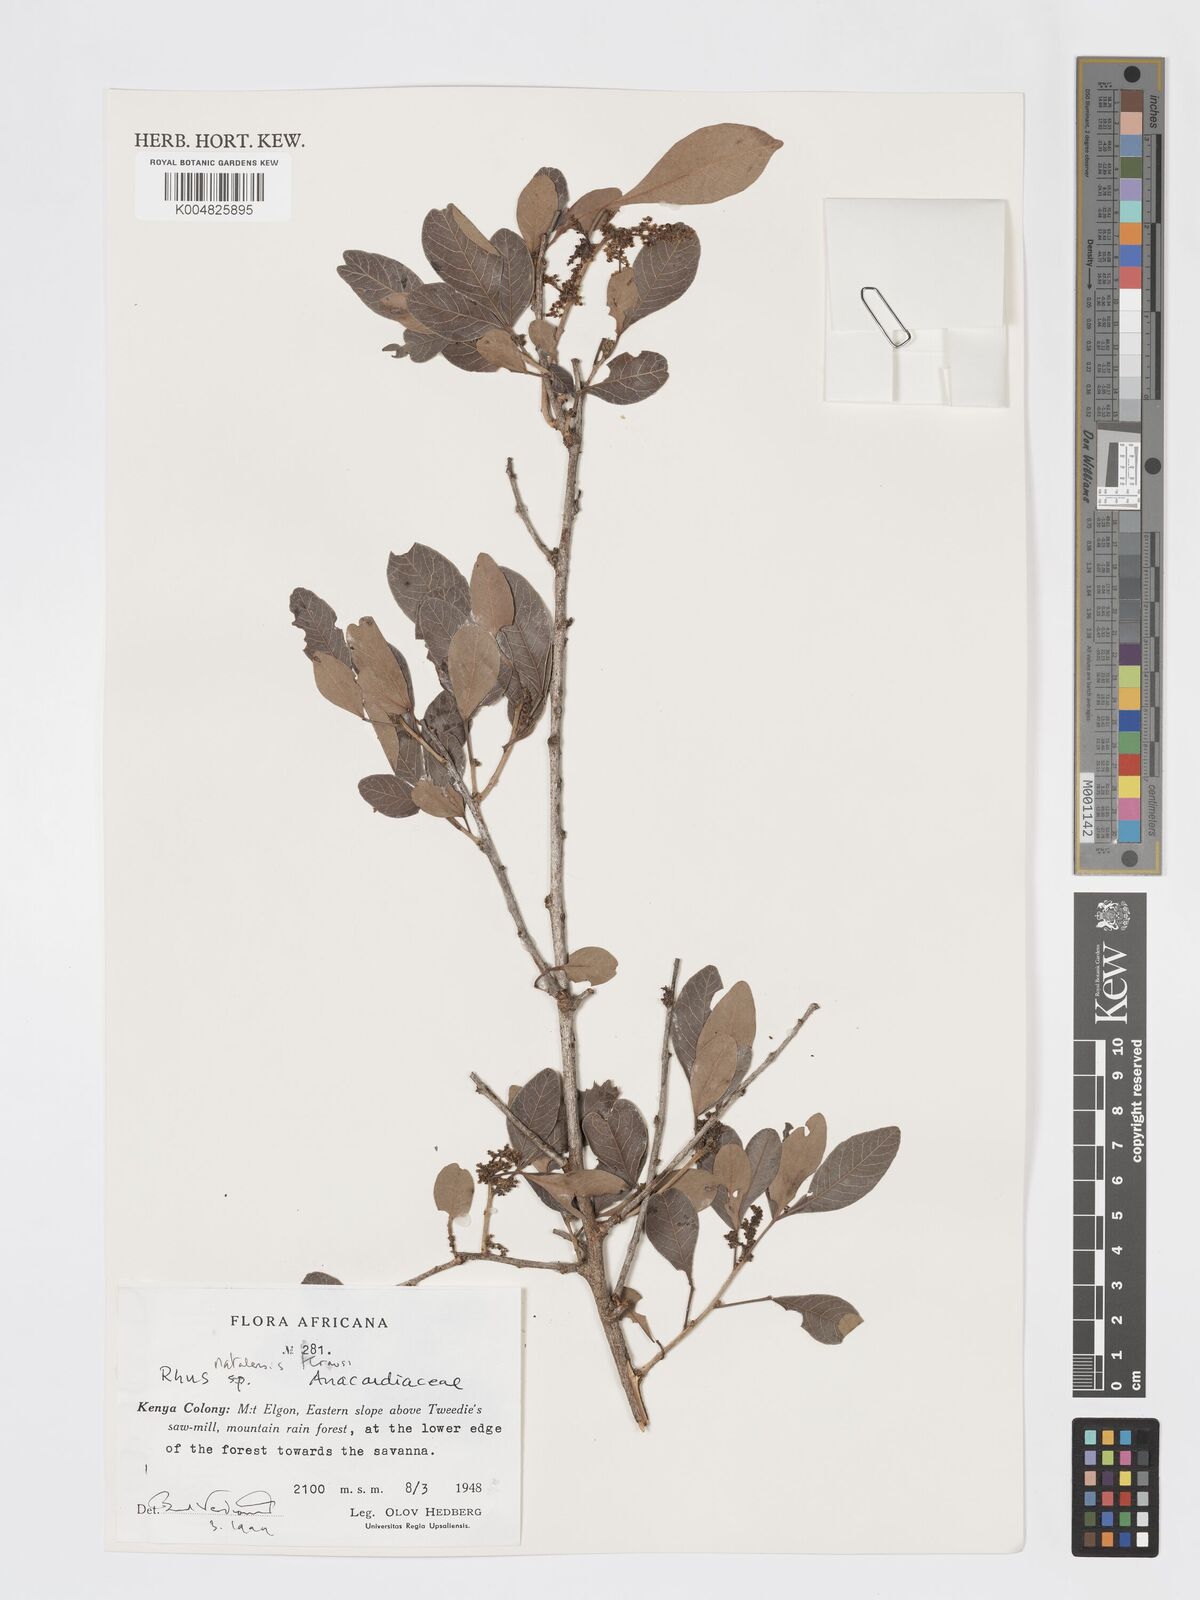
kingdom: Plantae
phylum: Tracheophyta
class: Magnoliopsida
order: Sapindales
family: Anacardiaceae
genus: Searsia
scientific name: Searsia natalensis
